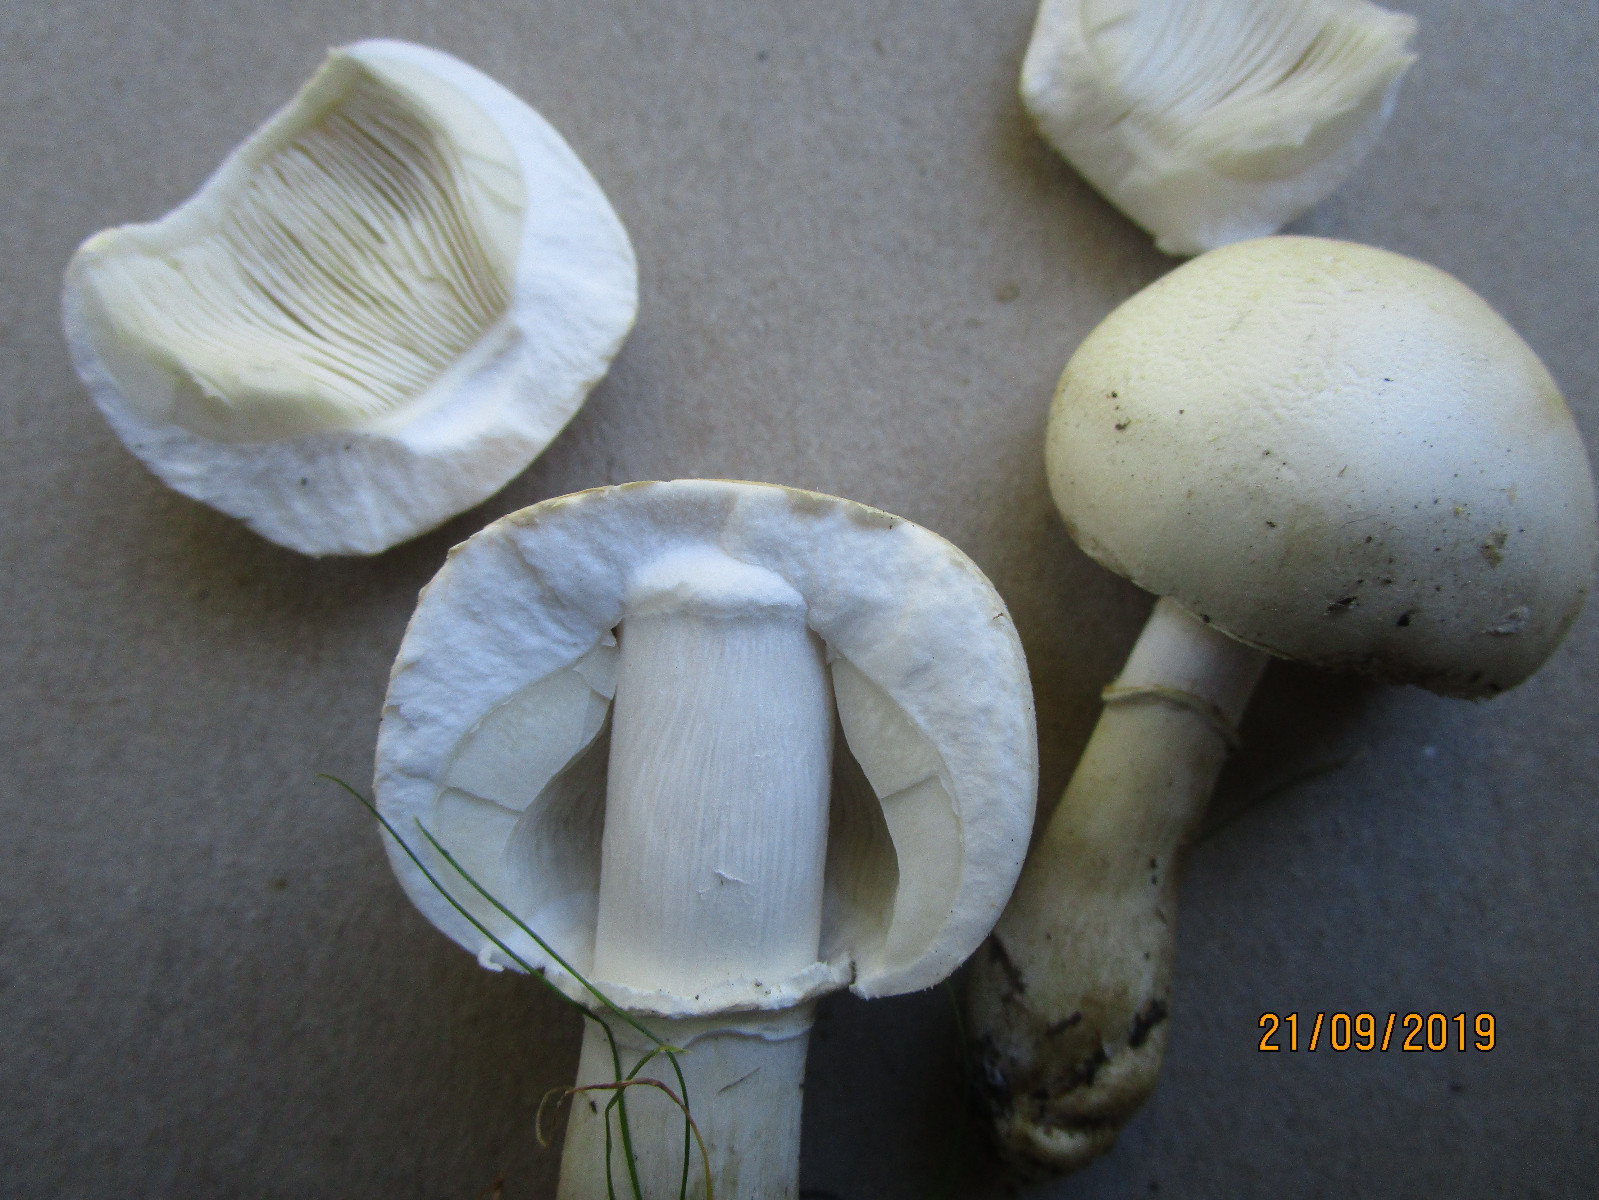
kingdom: Fungi
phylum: Basidiomycota
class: Agaricomycetes
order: Agaricales
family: Agaricaceae
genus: Leucoagaricus
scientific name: Leucoagaricus leucothites
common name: rosabladet silkehat
